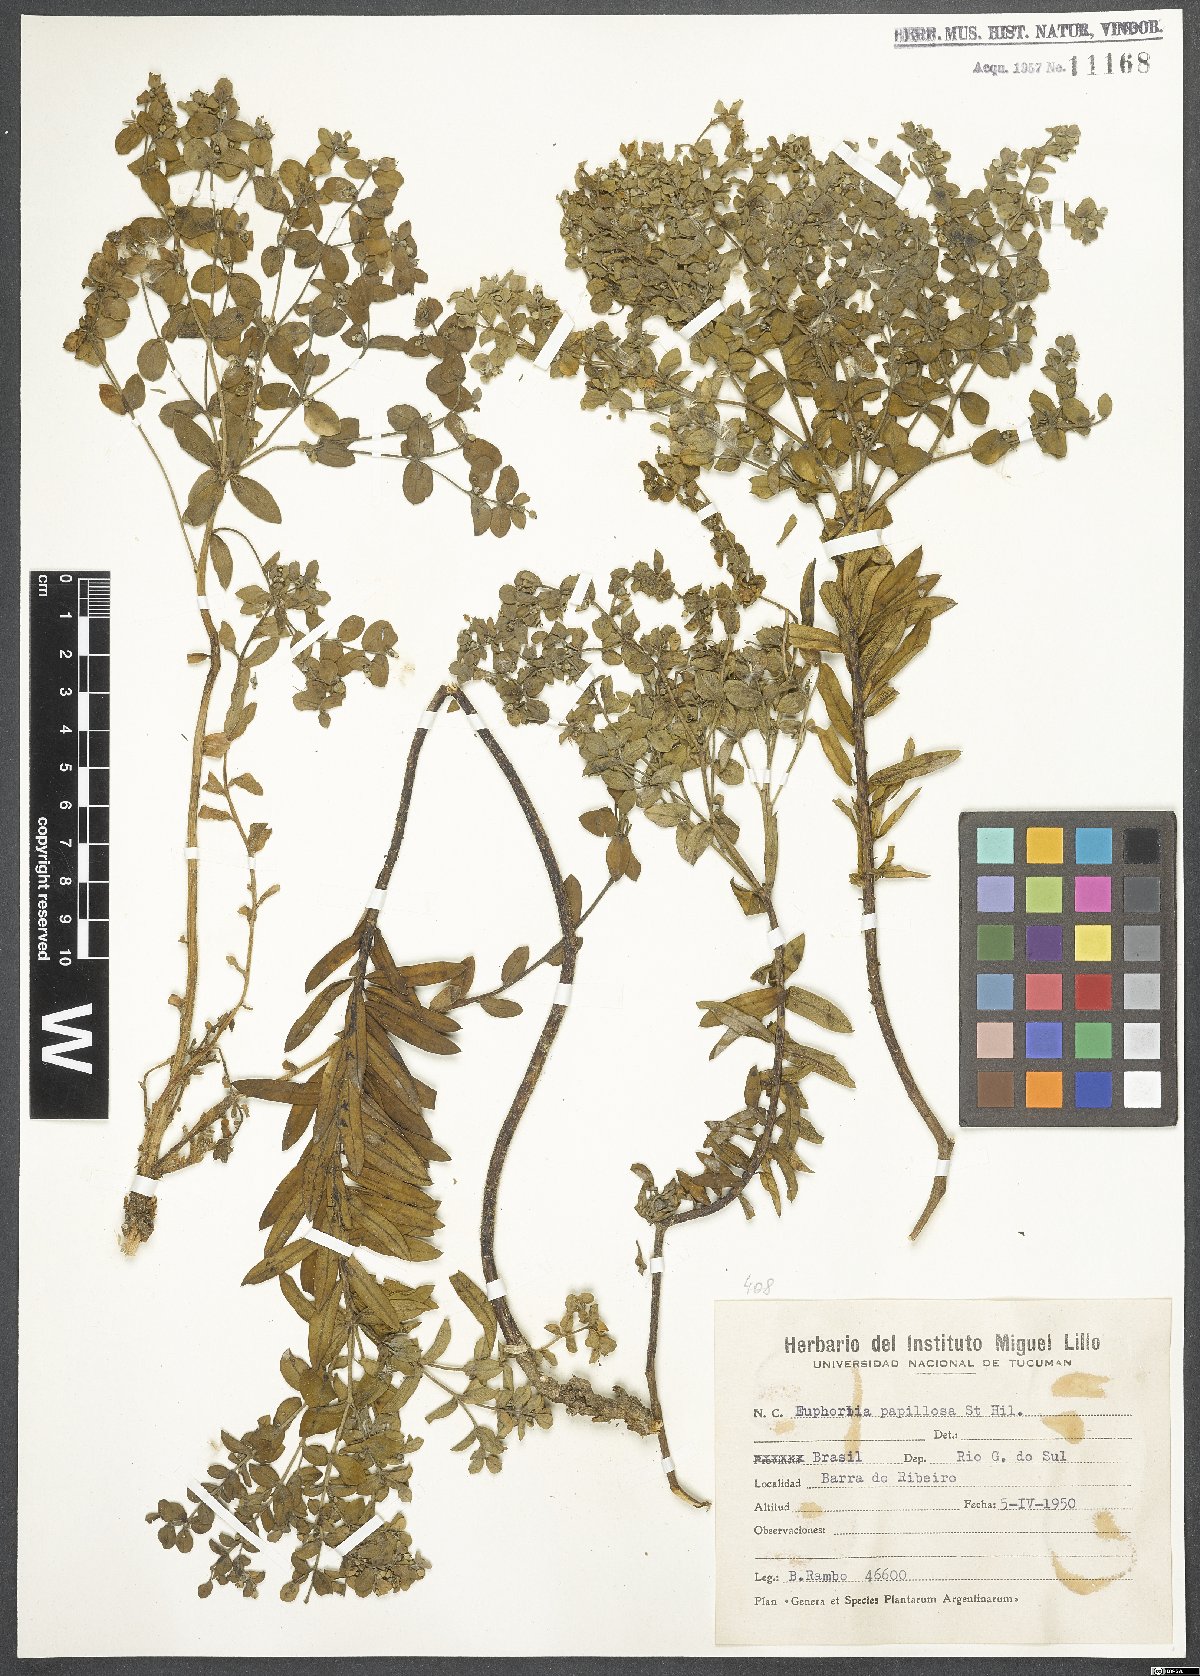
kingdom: Plantae
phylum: Tracheophyta
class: Magnoliopsida
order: Malpighiales
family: Euphorbiaceae
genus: Euphorbia
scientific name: Euphorbia papillosa
